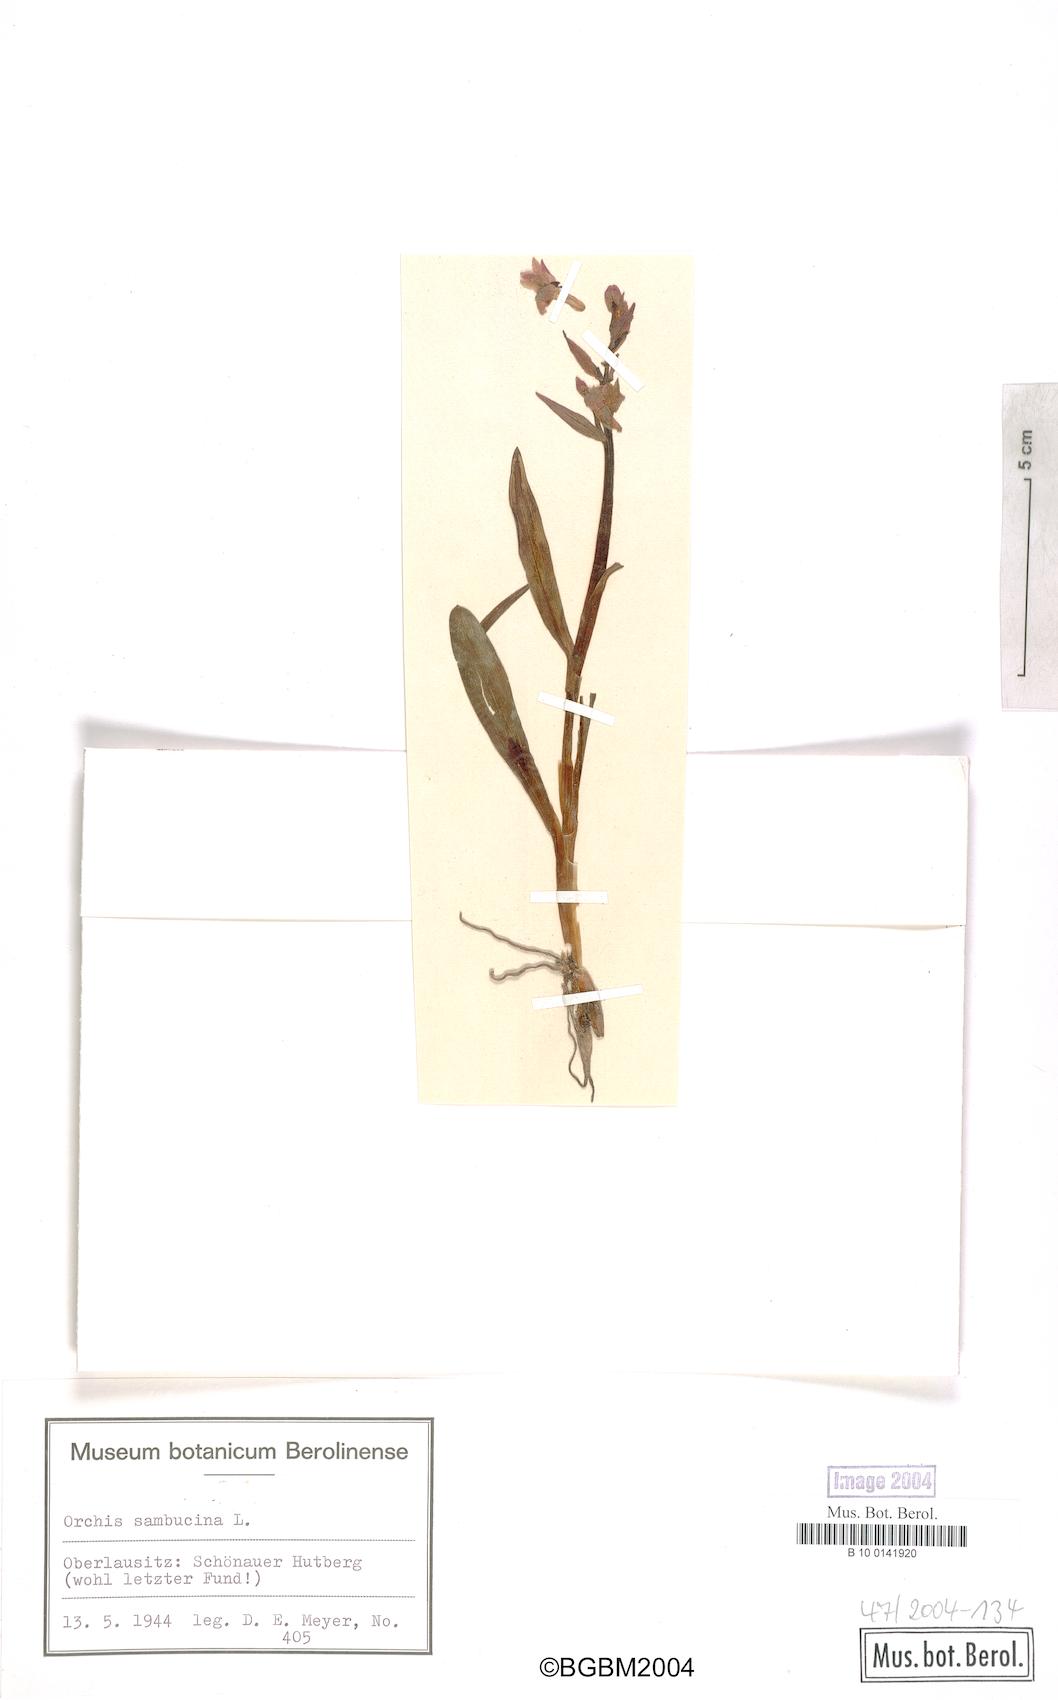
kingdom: Plantae
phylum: Tracheophyta
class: Liliopsida
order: Asparagales
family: Orchidaceae
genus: Dactylorhiza
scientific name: Dactylorhiza sambucina
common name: Elder-flowered orchid
